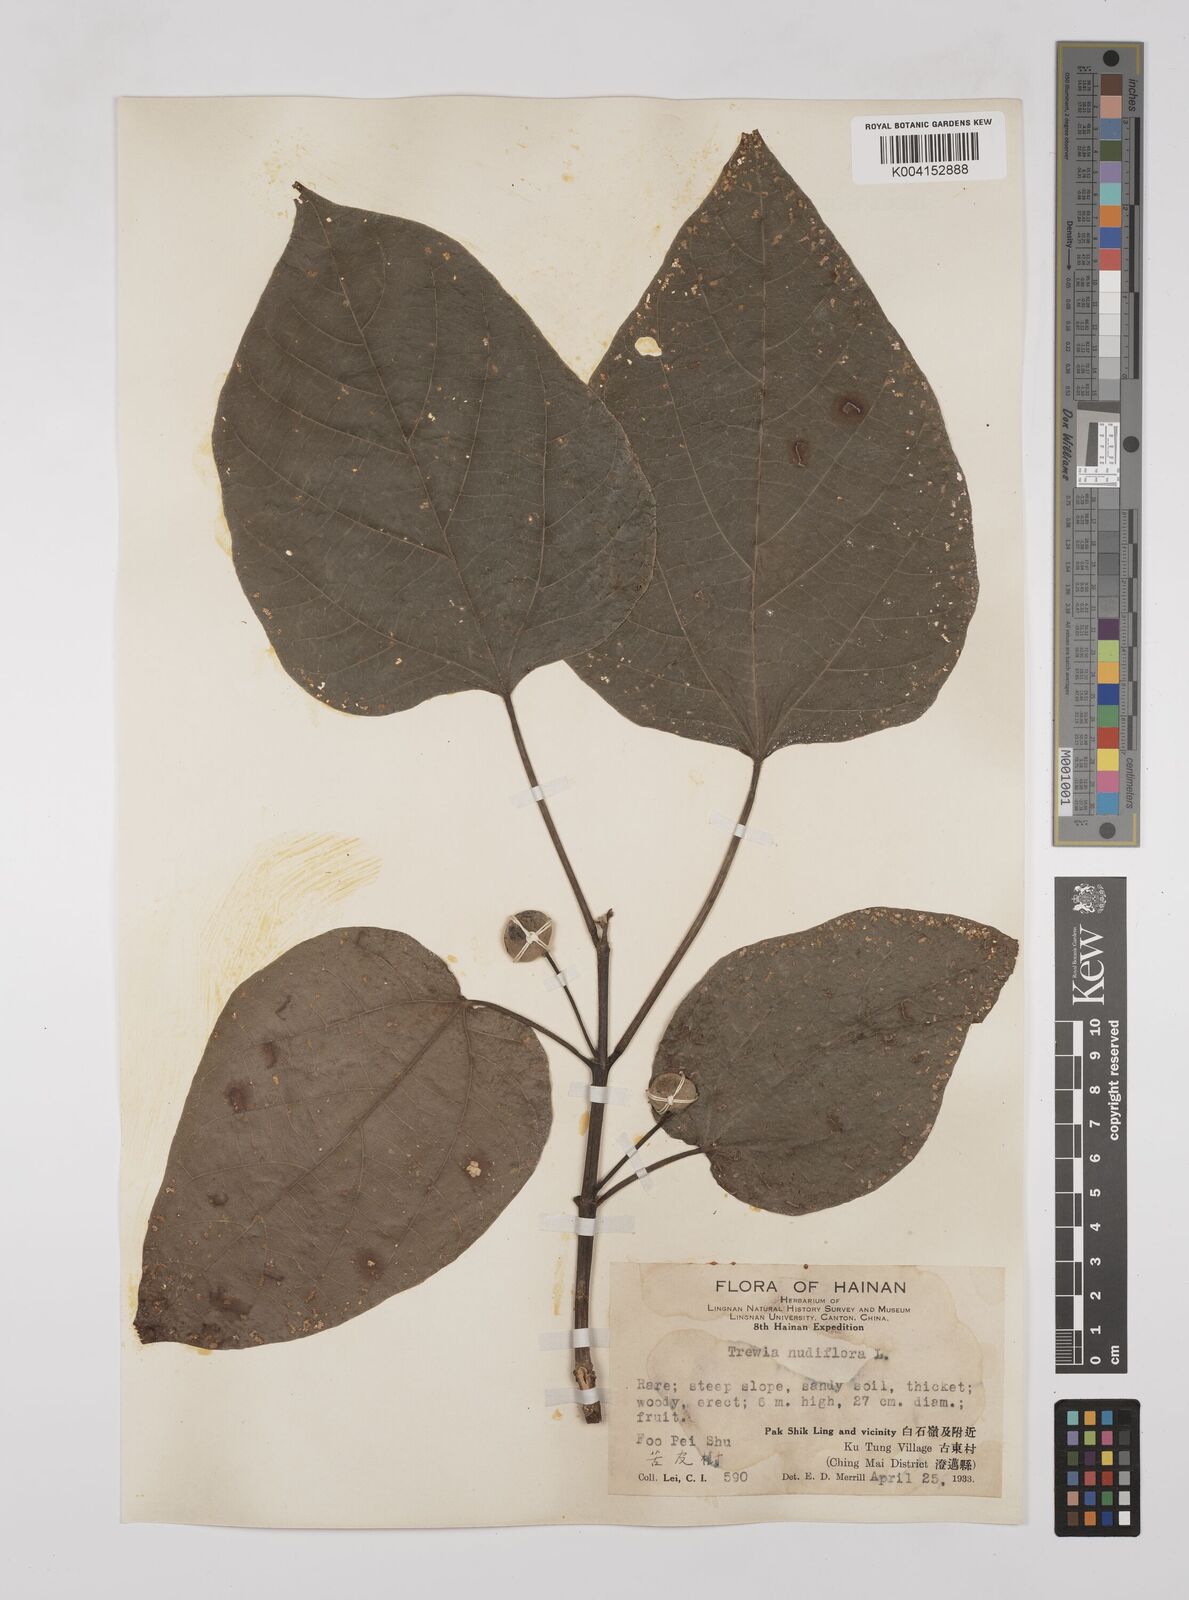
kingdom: Plantae
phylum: Tracheophyta
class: Magnoliopsida
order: Malpighiales
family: Euphorbiaceae
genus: Mallotus
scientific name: Mallotus nudiflorus
